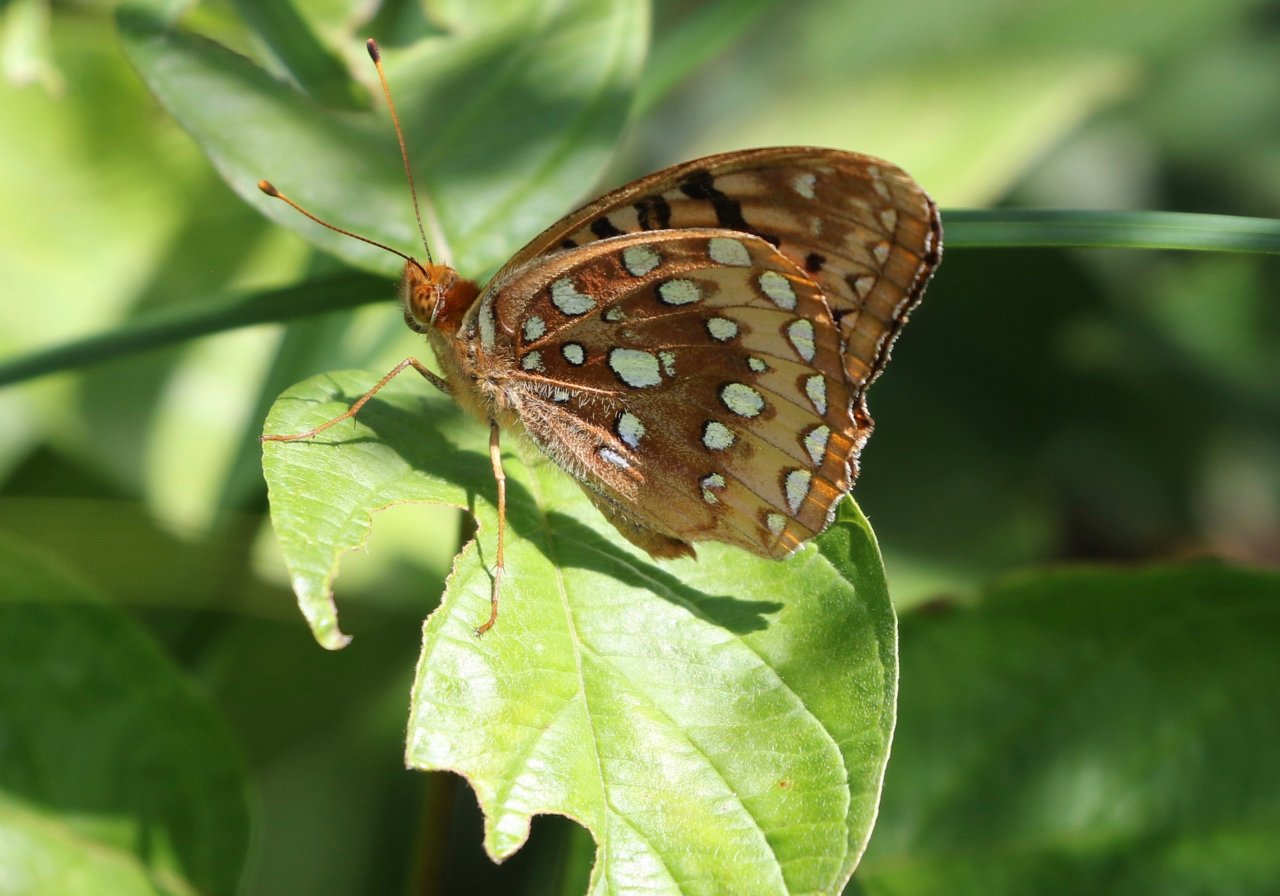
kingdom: Animalia
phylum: Arthropoda
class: Insecta
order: Lepidoptera
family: Nymphalidae
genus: Speyeria
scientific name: Speyeria cybele
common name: Great Spangled Fritillary
